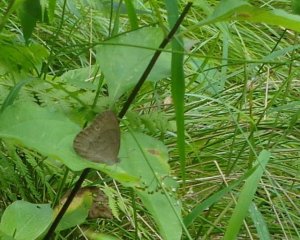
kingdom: Animalia
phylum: Arthropoda
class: Insecta
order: Lepidoptera
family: Nymphalidae
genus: Lethe
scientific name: Lethe eurydice
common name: Appalachian Eyed Brown
